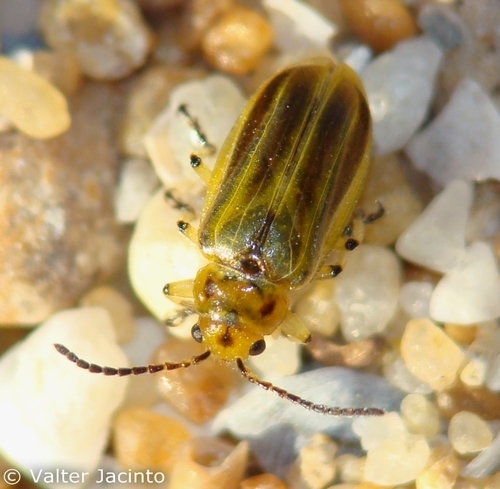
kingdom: Animalia
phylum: Arthropoda
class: Insecta
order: Coleoptera
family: Chrysomelidae
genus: Diorhabda
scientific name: Diorhabda elongata
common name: Tamarisk leaf beetle
